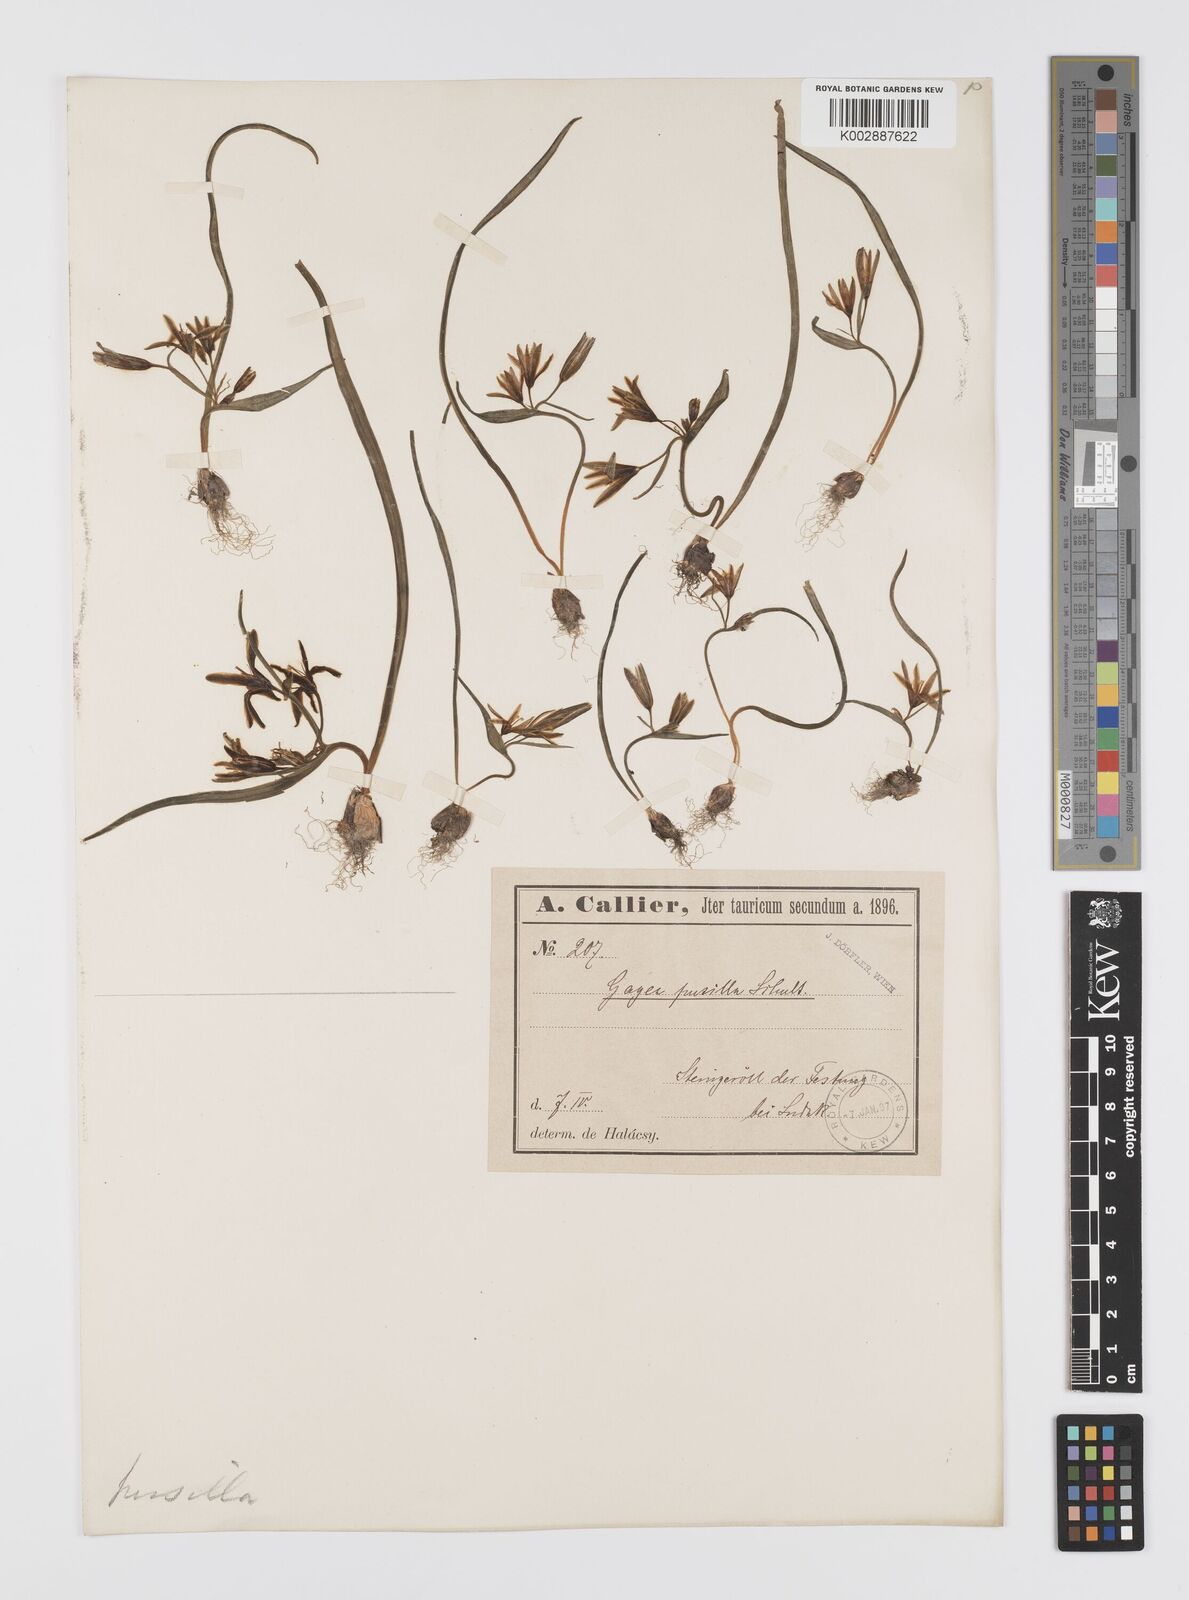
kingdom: Plantae
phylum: Tracheophyta
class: Liliopsida
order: Liliales
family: Liliaceae
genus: Gagea
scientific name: Gagea pusilla
